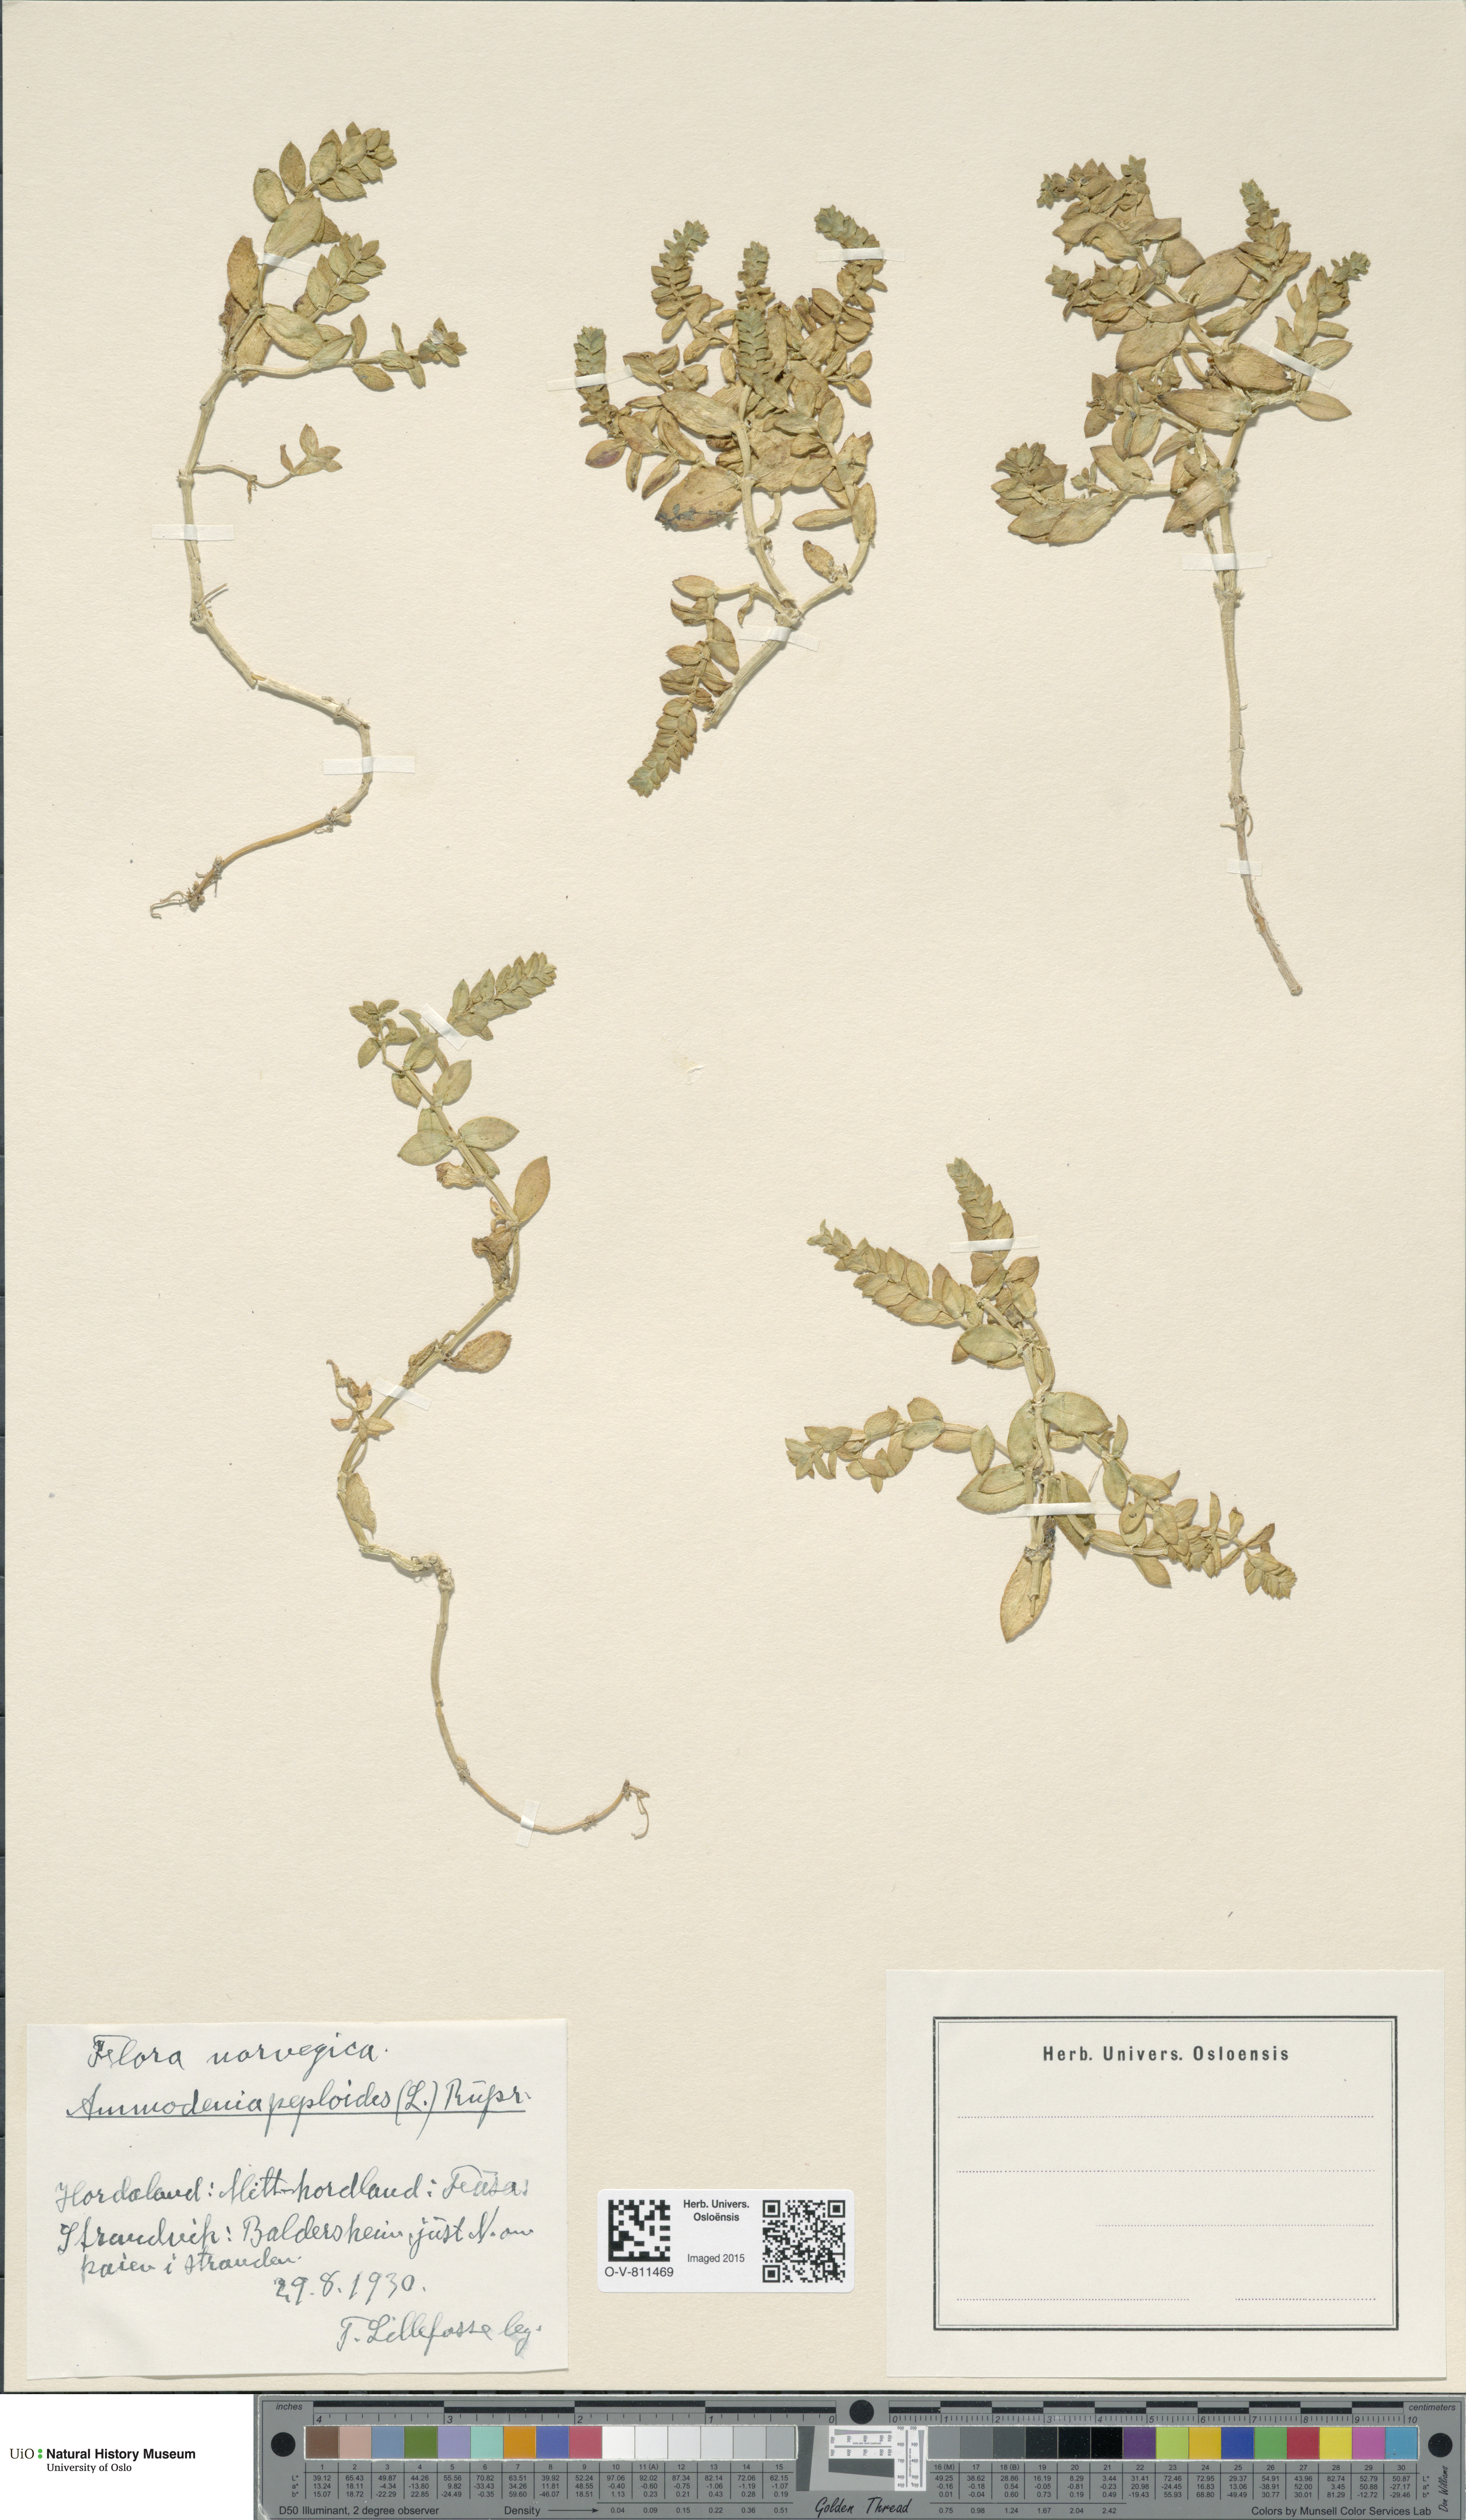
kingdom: Plantae
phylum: Tracheophyta
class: Magnoliopsida
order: Caryophyllales
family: Caryophyllaceae
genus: Honckenya
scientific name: Honckenya peploides
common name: Sea sandwort
